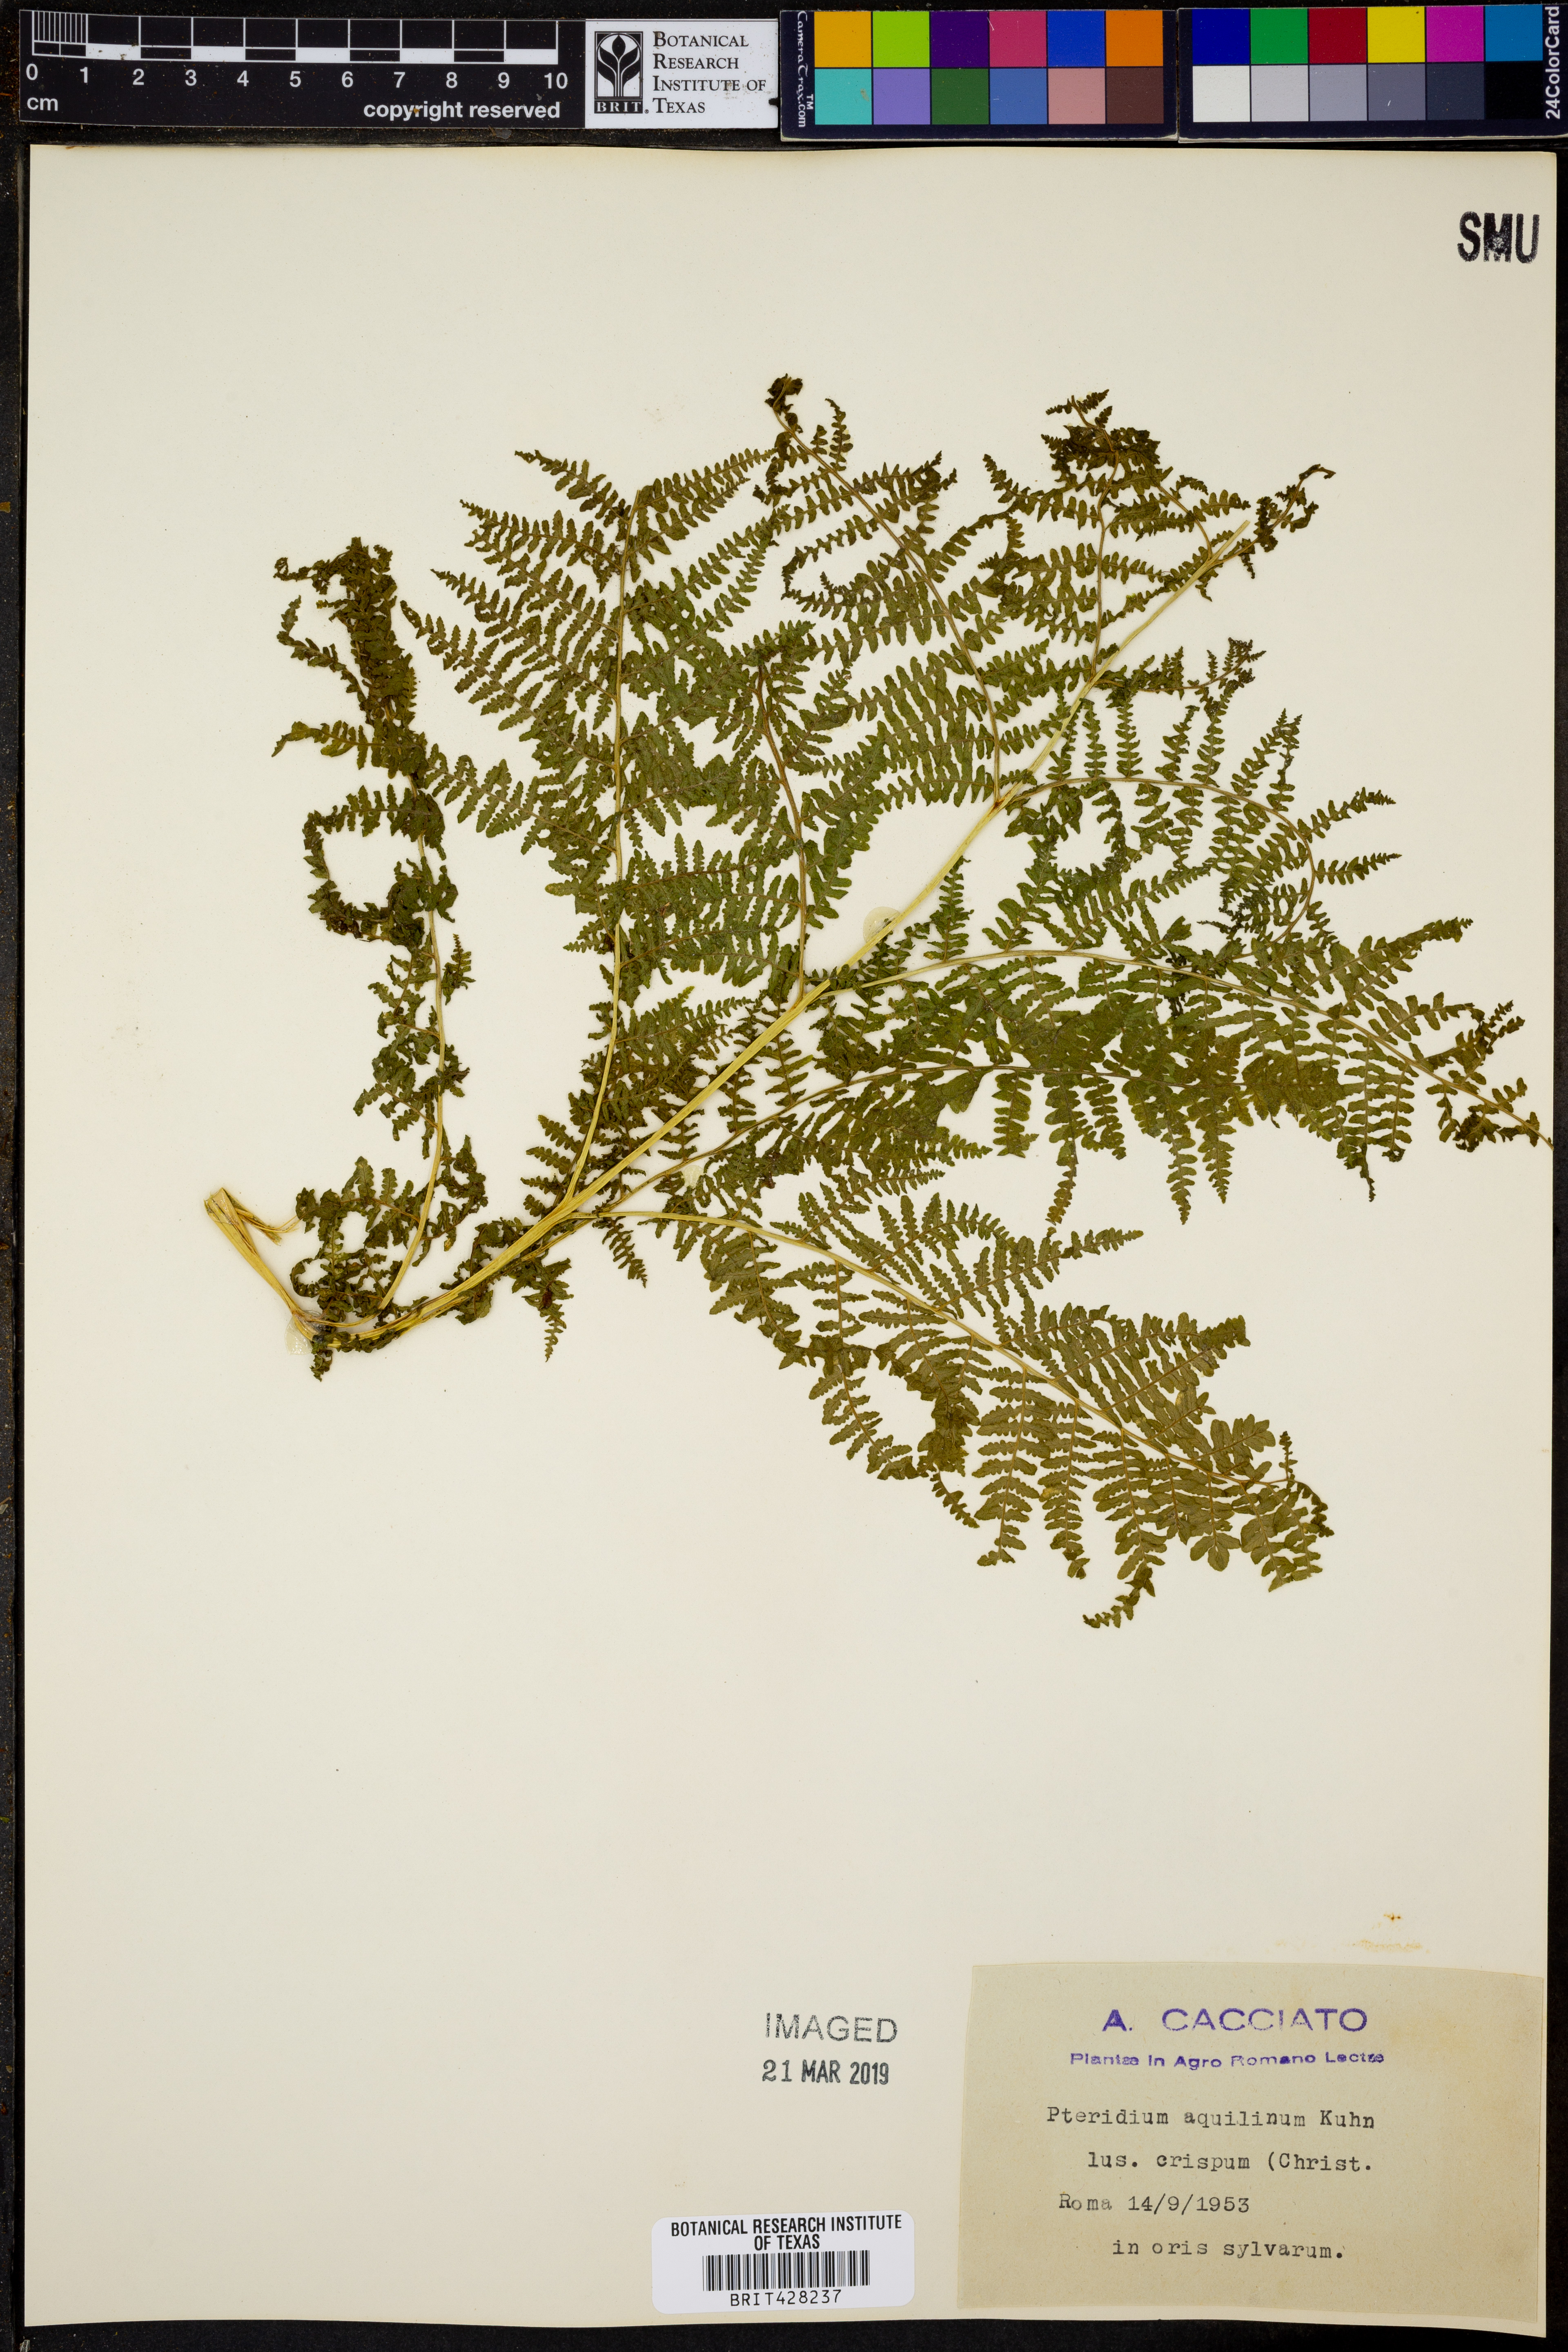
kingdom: Plantae
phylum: Tracheophyta
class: Polypodiopsida
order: Polypodiales
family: Dennstaedtiaceae
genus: Pteridium
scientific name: Pteridium aquilinum
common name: Bracken
